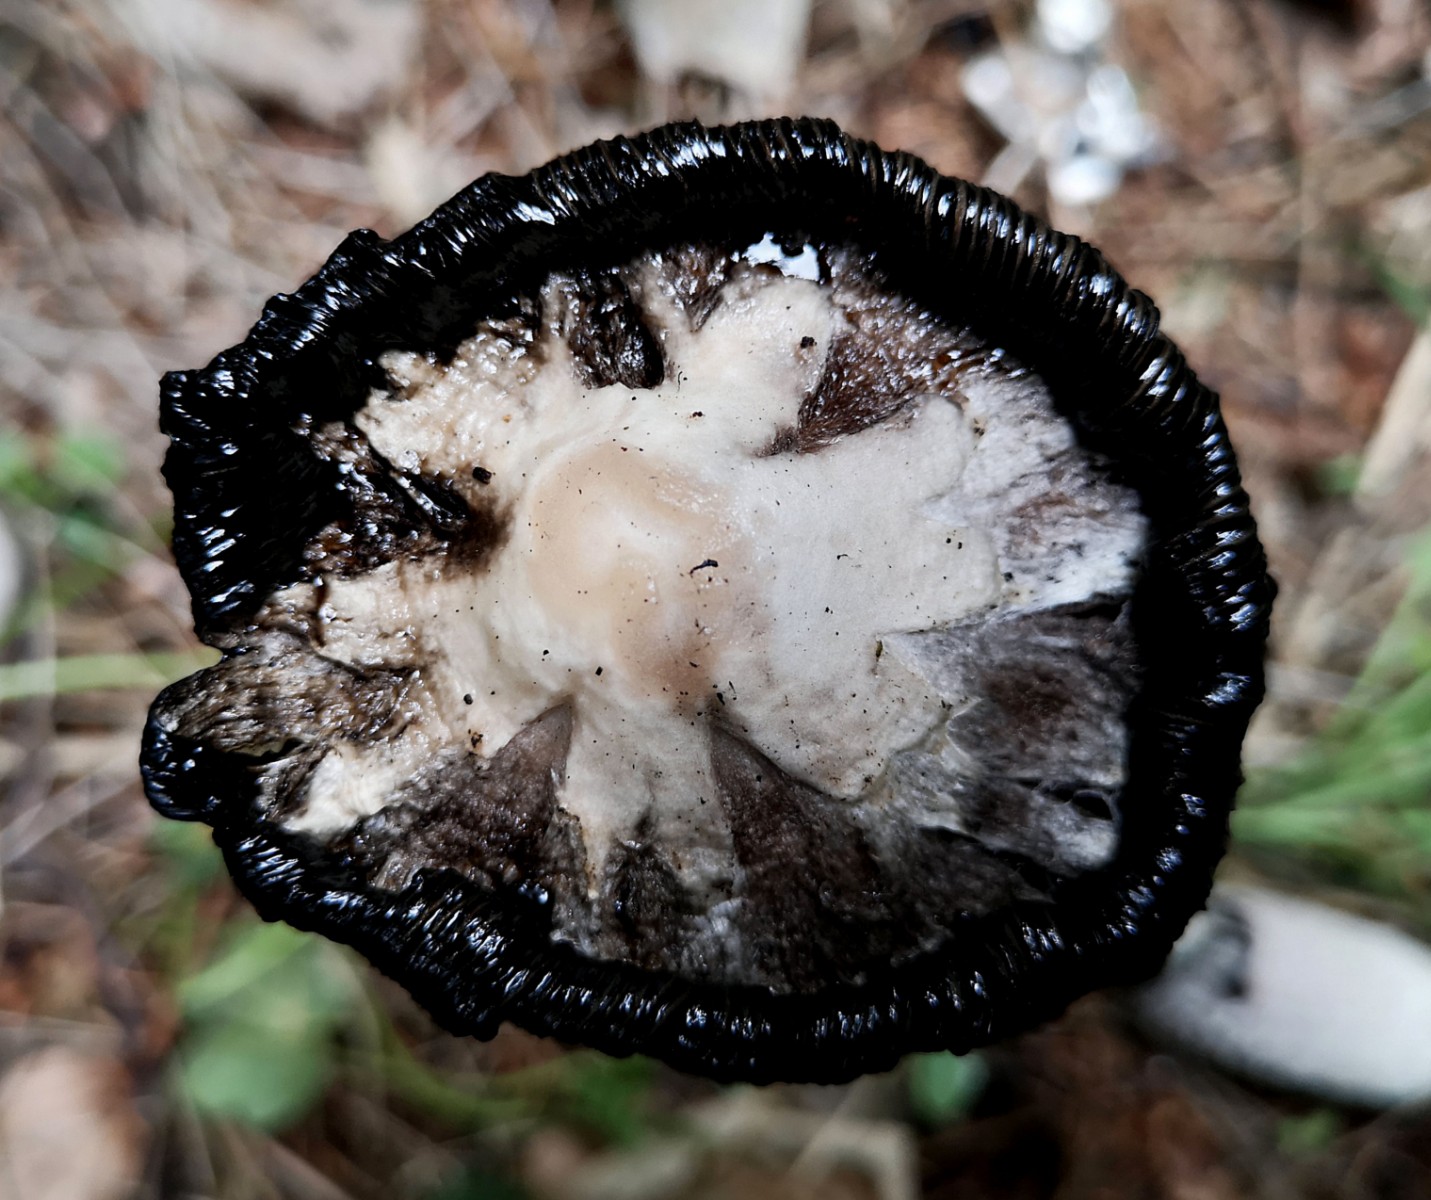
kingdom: Fungi
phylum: Basidiomycota
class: Agaricomycetes
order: Agaricales
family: Agaricaceae
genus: Coprinus
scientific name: Coprinus comatus
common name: stor parykhat
